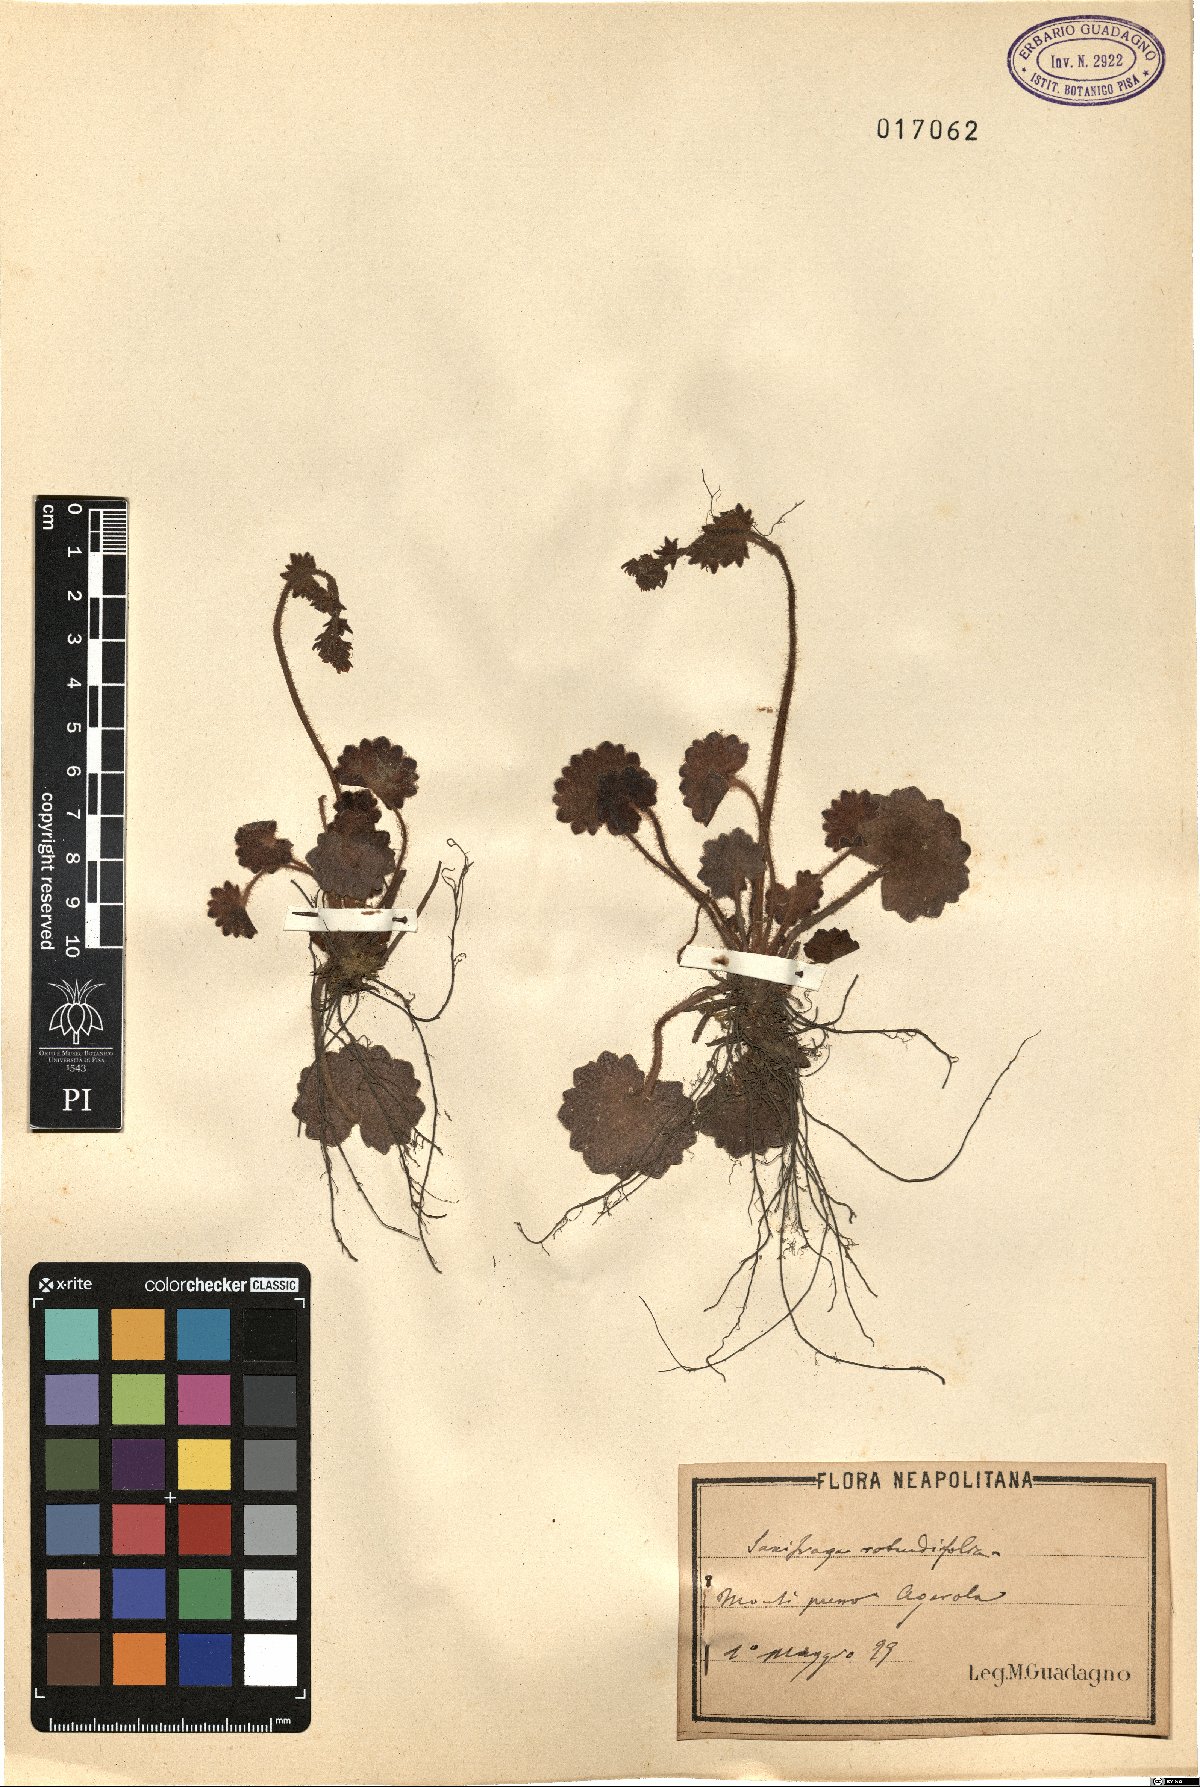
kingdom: Plantae
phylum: Tracheophyta
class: Magnoliopsida
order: Saxifragales
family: Saxifragaceae
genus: Saxifraga
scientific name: Saxifraga rotundifolia
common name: Round-leaved saxifrage
